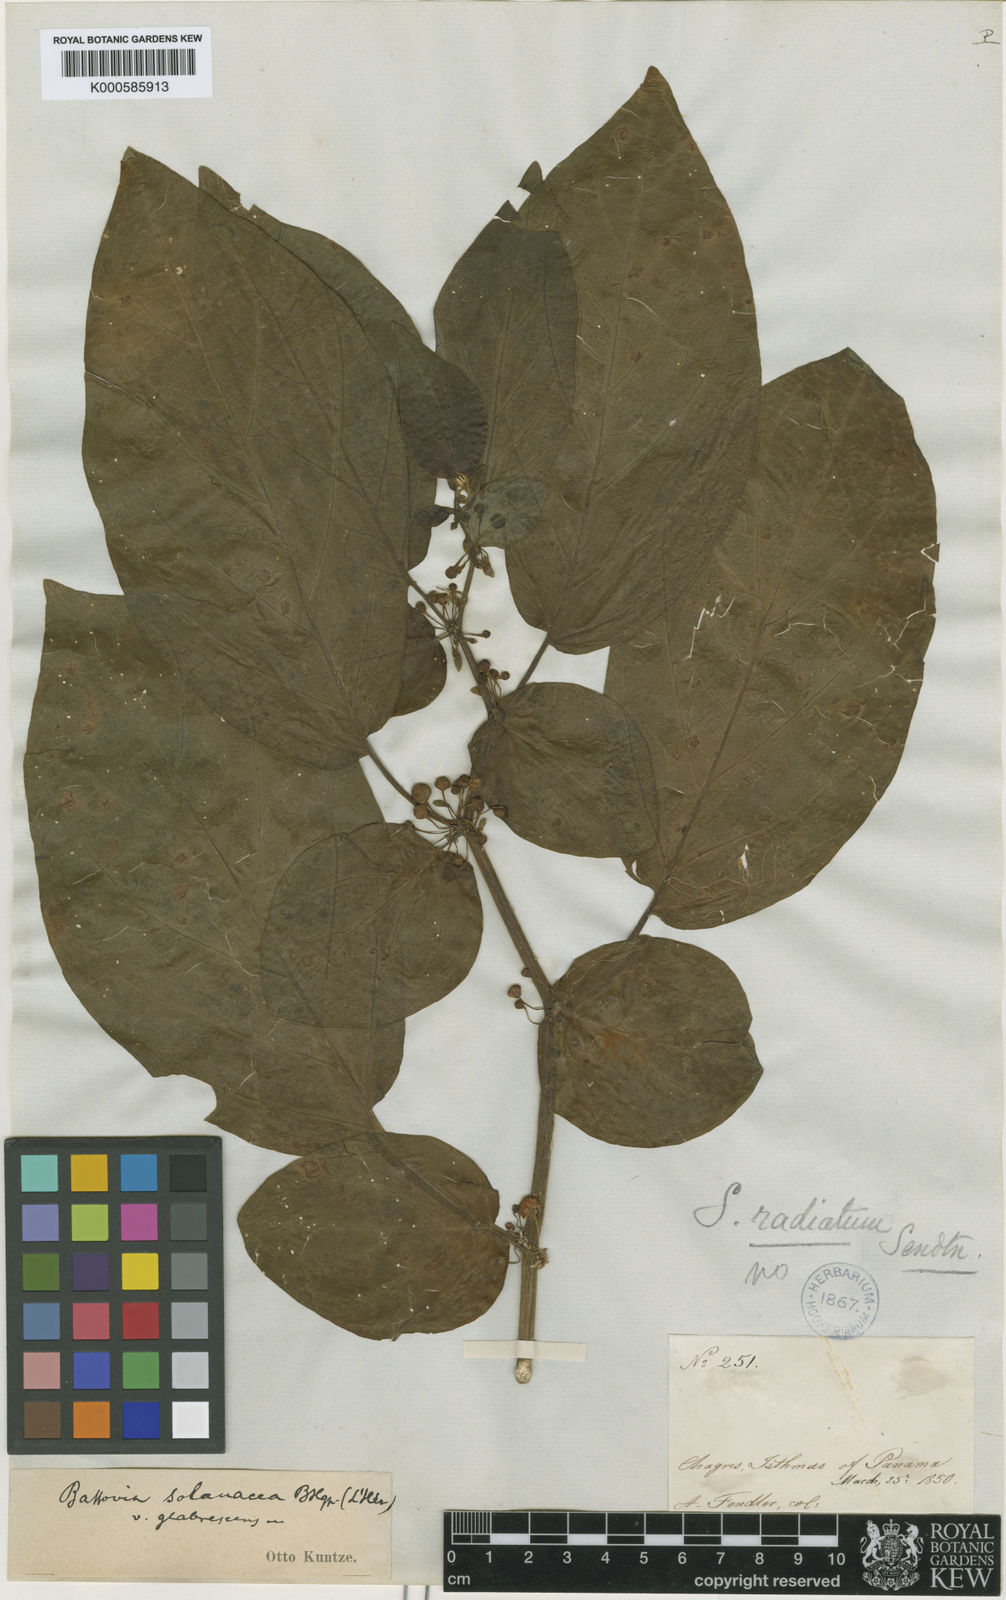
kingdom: Plantae
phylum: Tracheophyta
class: Magnoliopsida
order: Solanales
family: Solanaceae
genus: Witheringia
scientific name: Witheringia
